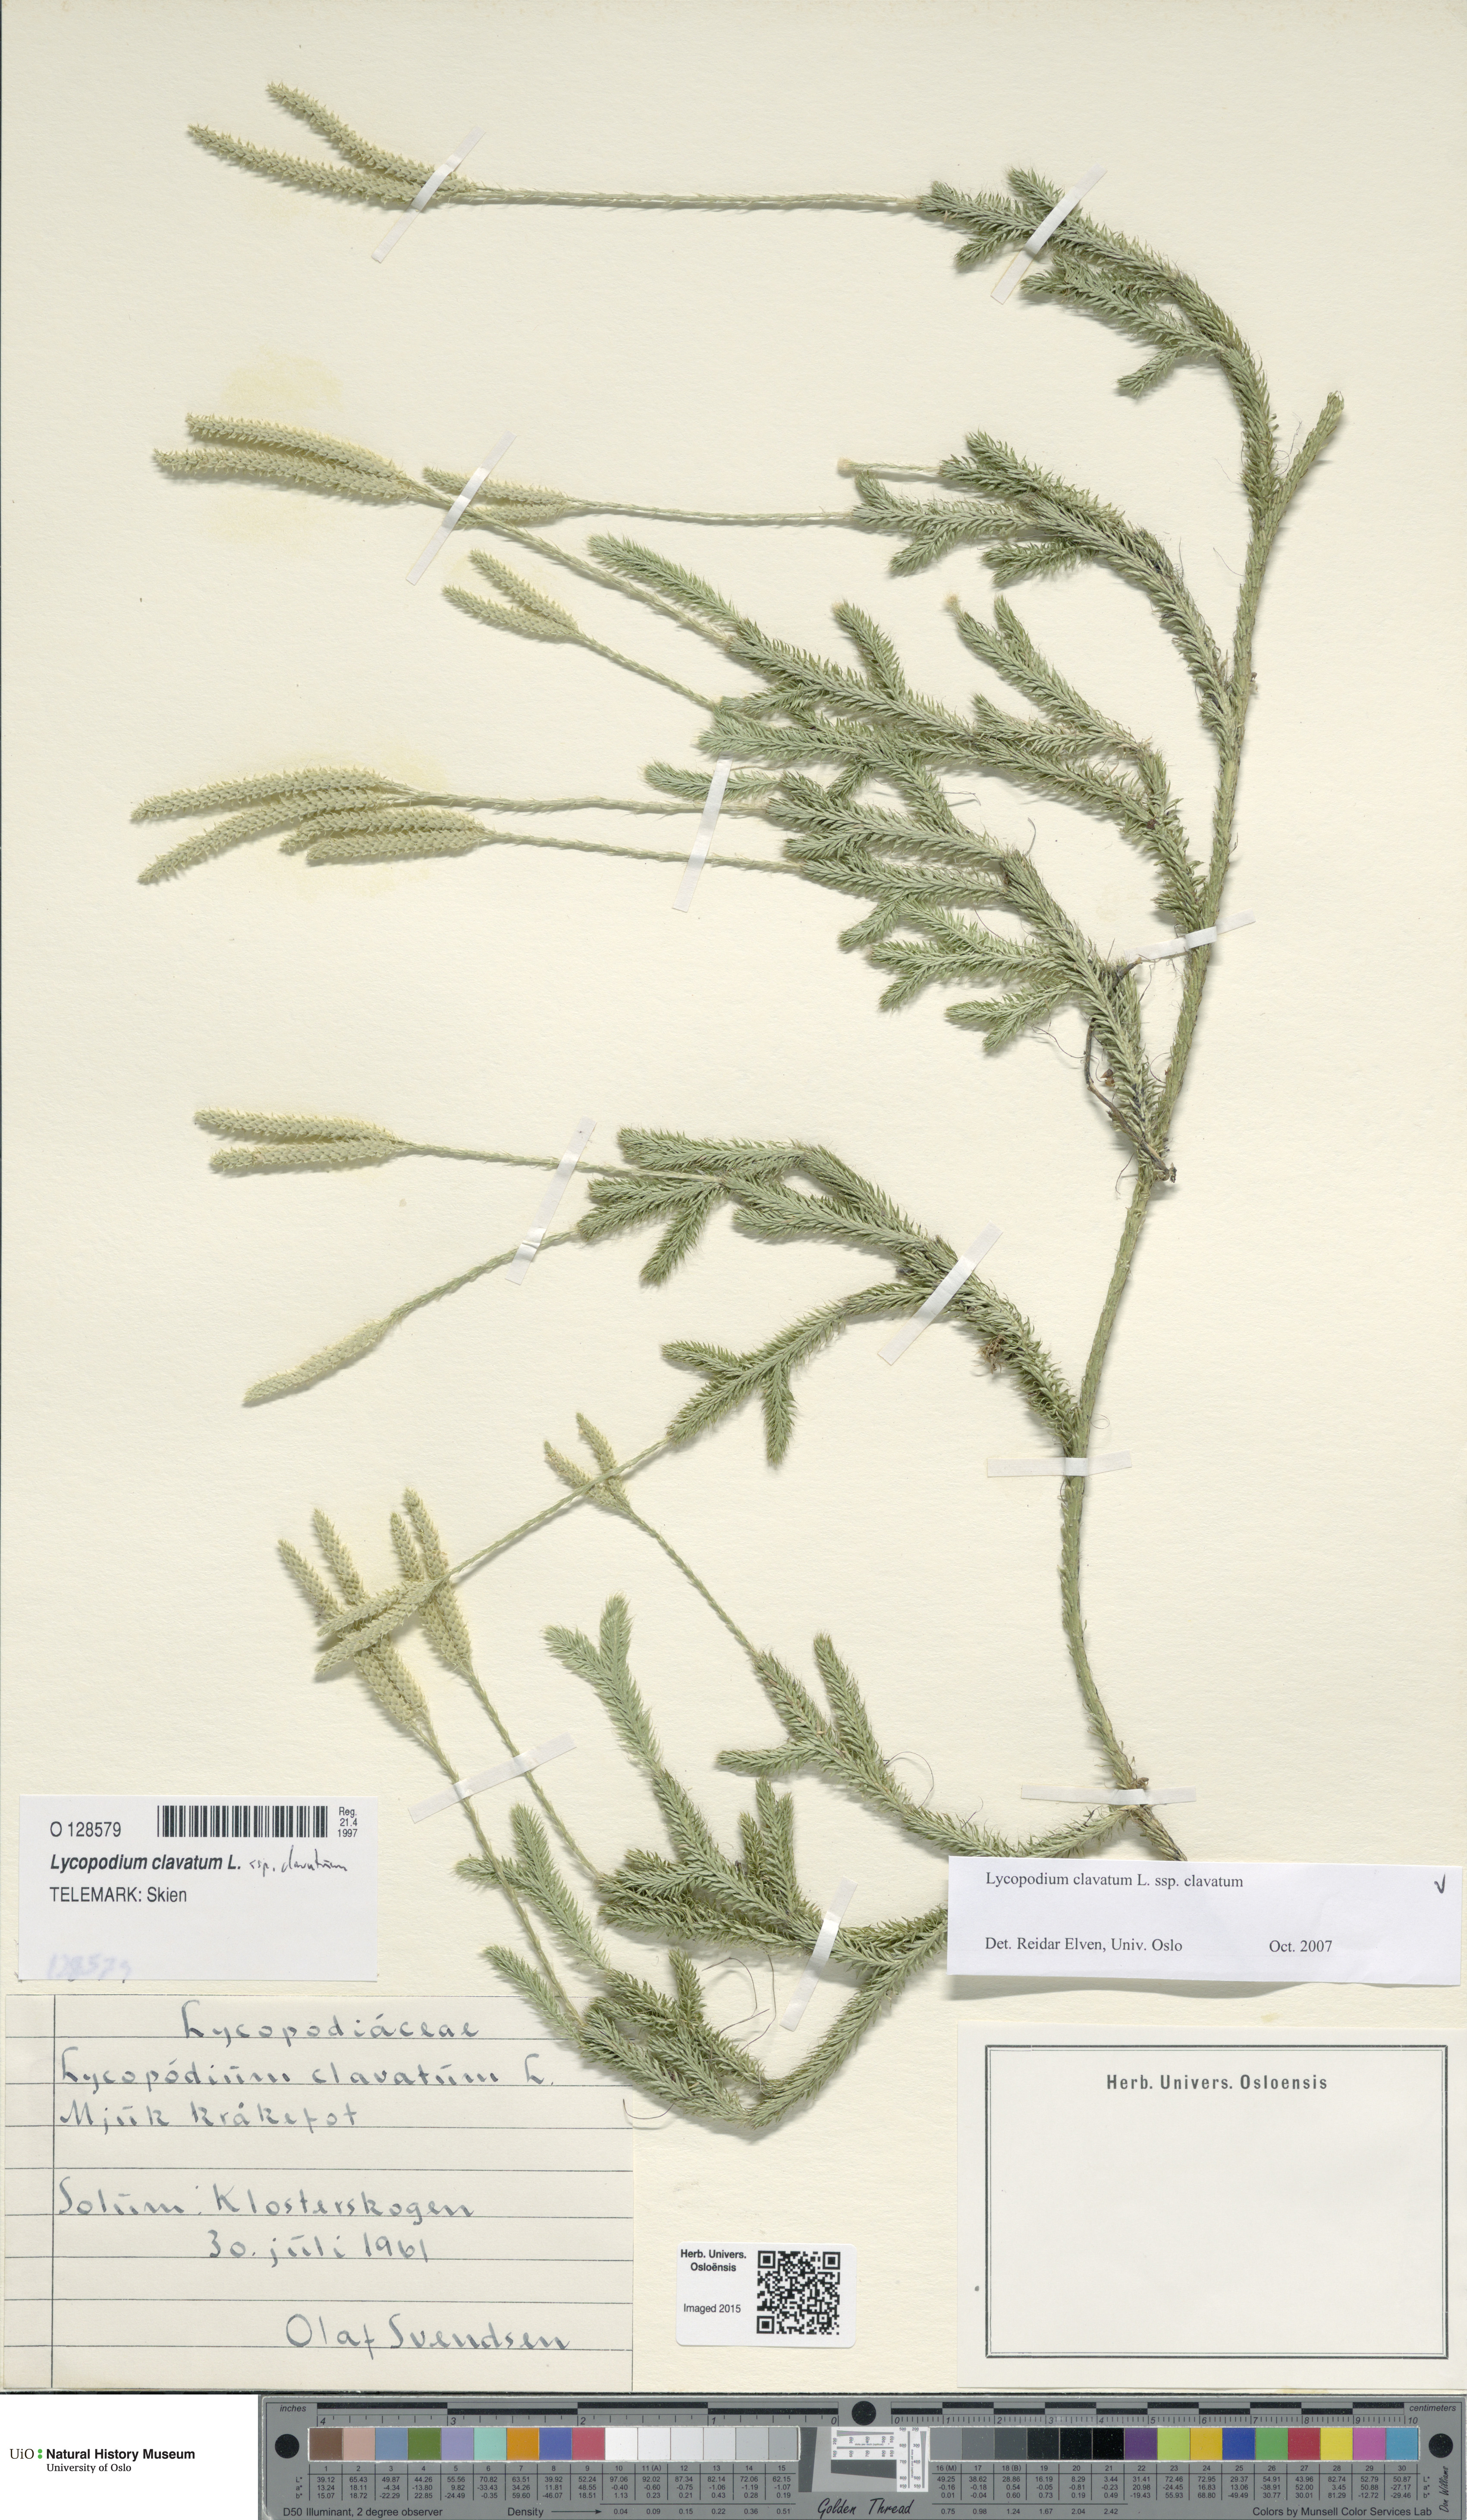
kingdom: Plantae
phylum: Tracheophyta
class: Lycopodiopsida
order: Lycopodiales
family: Lycopodiaceae
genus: Lycopodium
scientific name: Lycopodium clavatum
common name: Stag's-horn clubmoss
